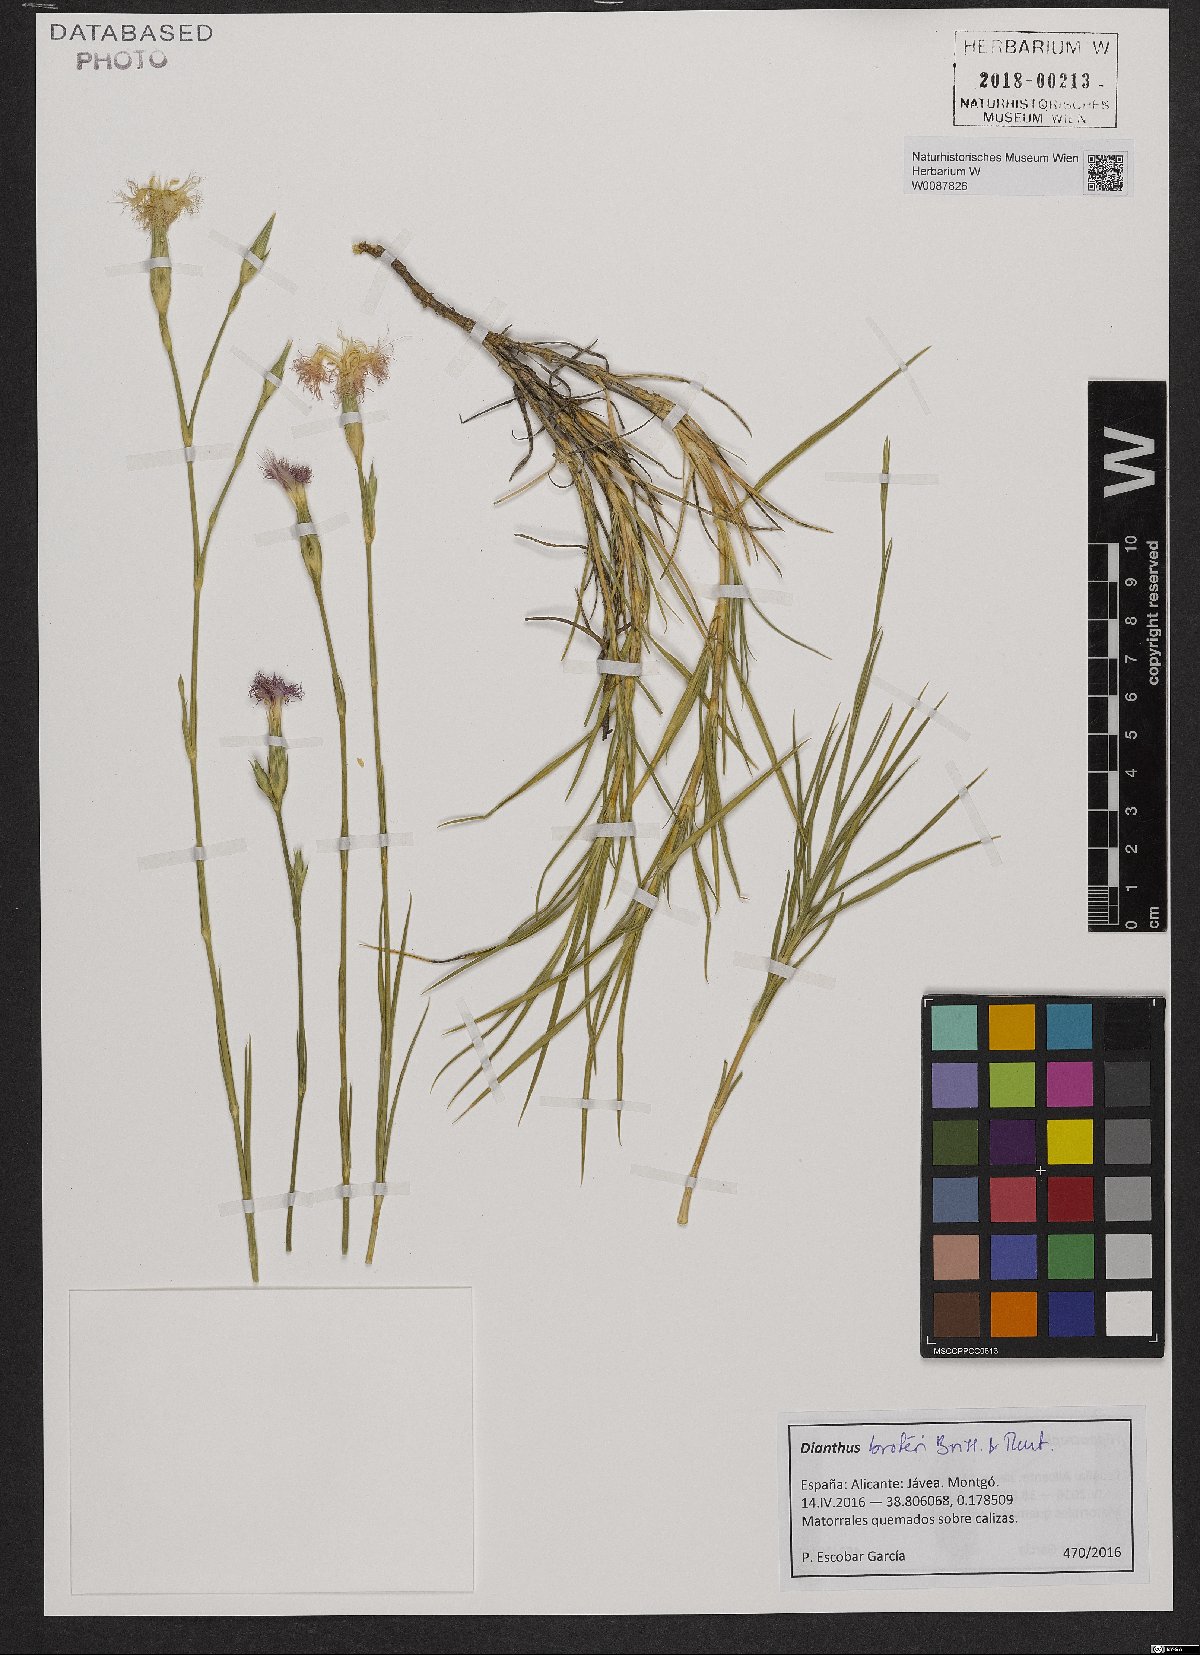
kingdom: Plantae
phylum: Tracheophyta
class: Magnoliopsida
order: Caryophyllales
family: Caryophyllaceae
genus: Dianthus
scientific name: Dianthus broteri
